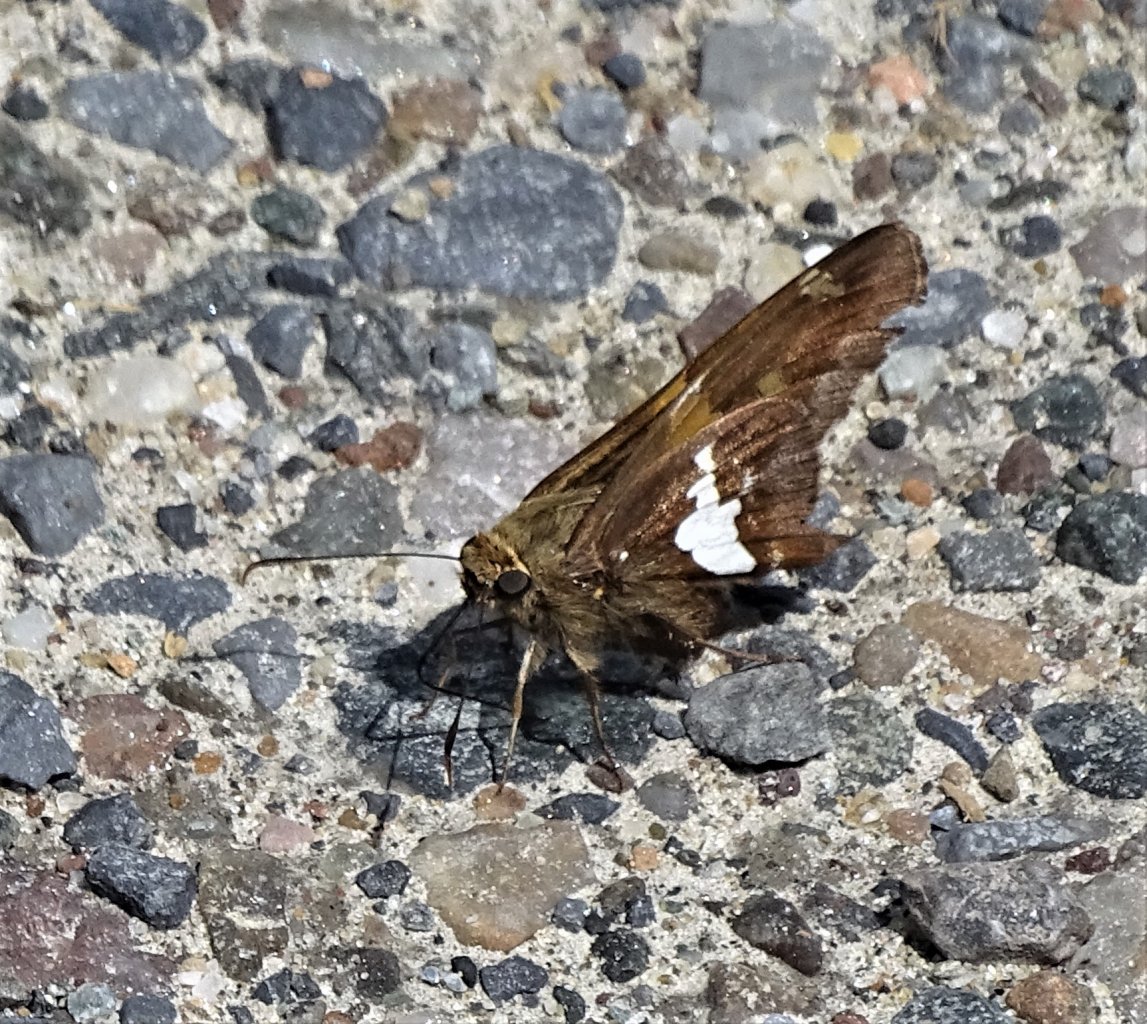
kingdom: Animalia
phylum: Arthropoda
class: Insecta
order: Lepidoptera
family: Hesperiidae
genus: Epargyreus
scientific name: Epargyreus clarus
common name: Silver-spotted Skipper
